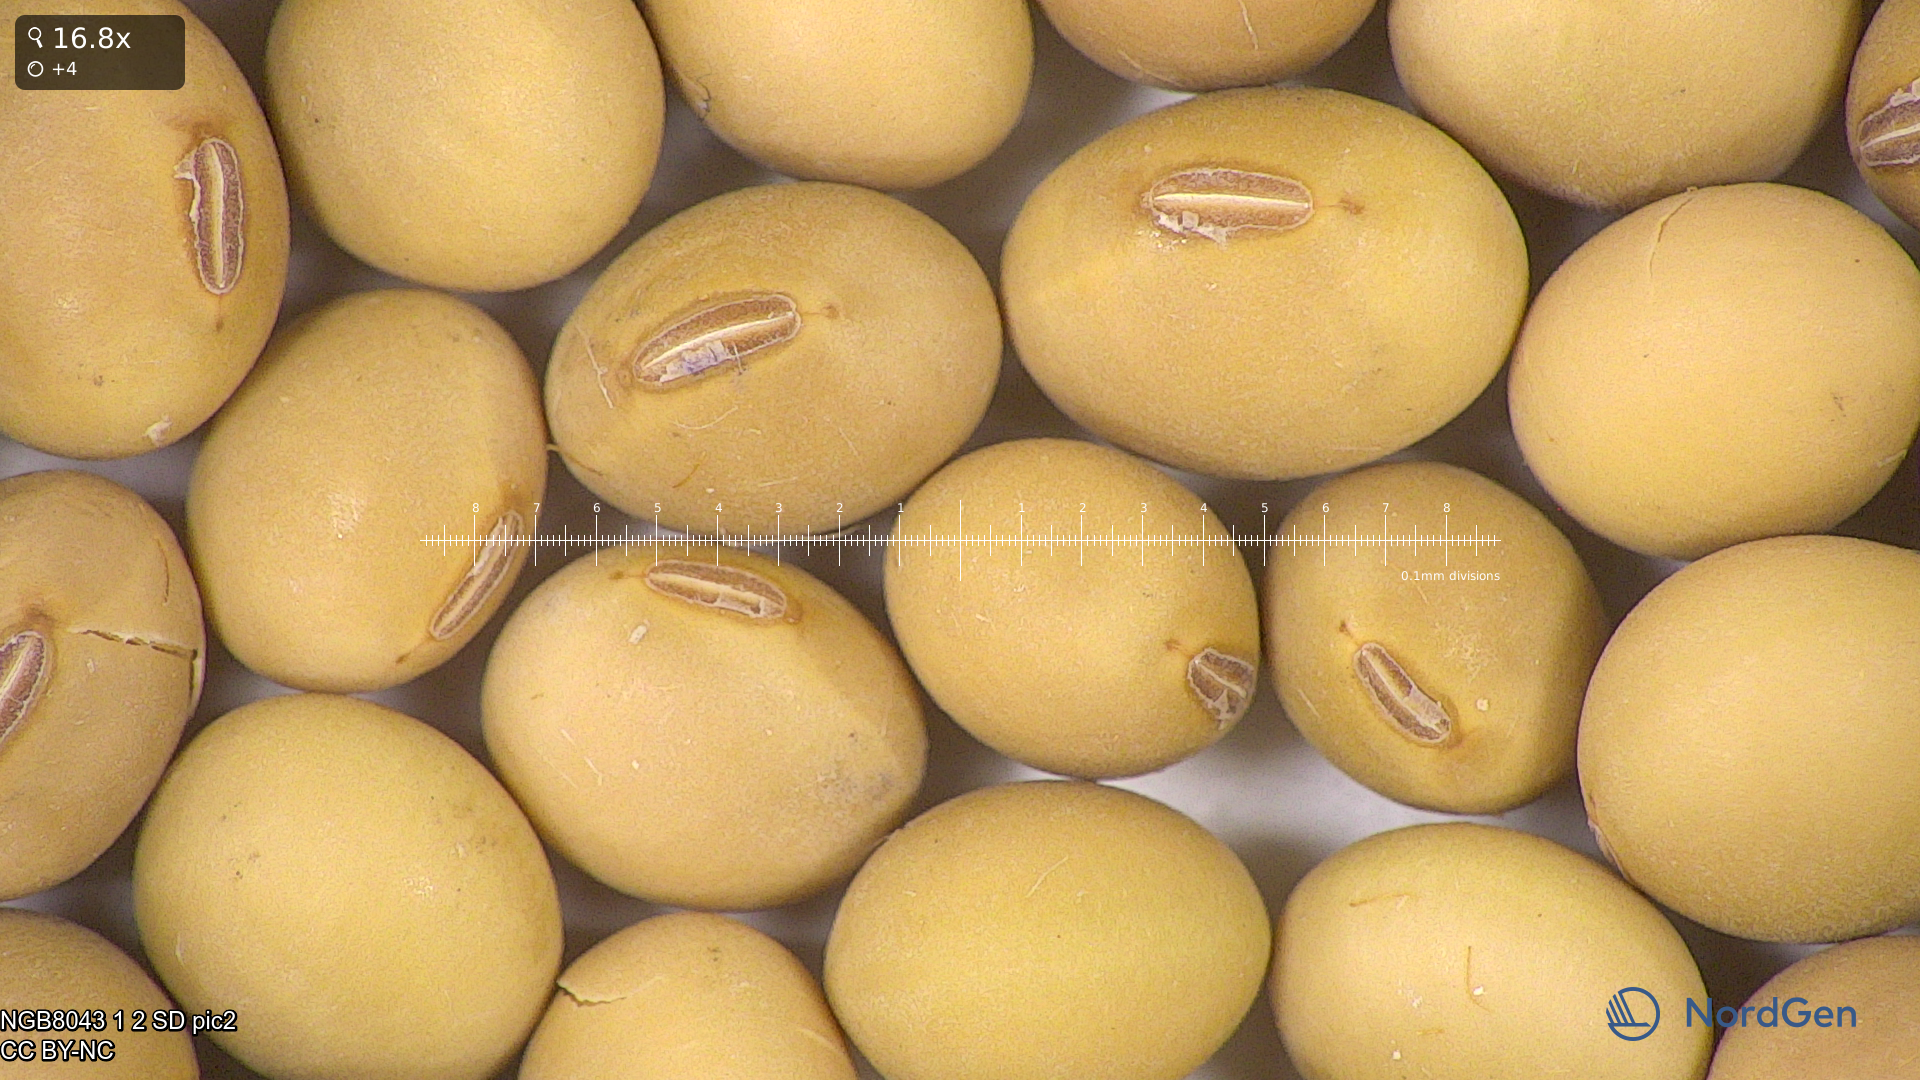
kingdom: Plantae
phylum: Tracheophyta
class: Magnoliopsida
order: Fabales
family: Fabaceae
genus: Glycine
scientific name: Glycine max
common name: Soya-bean
